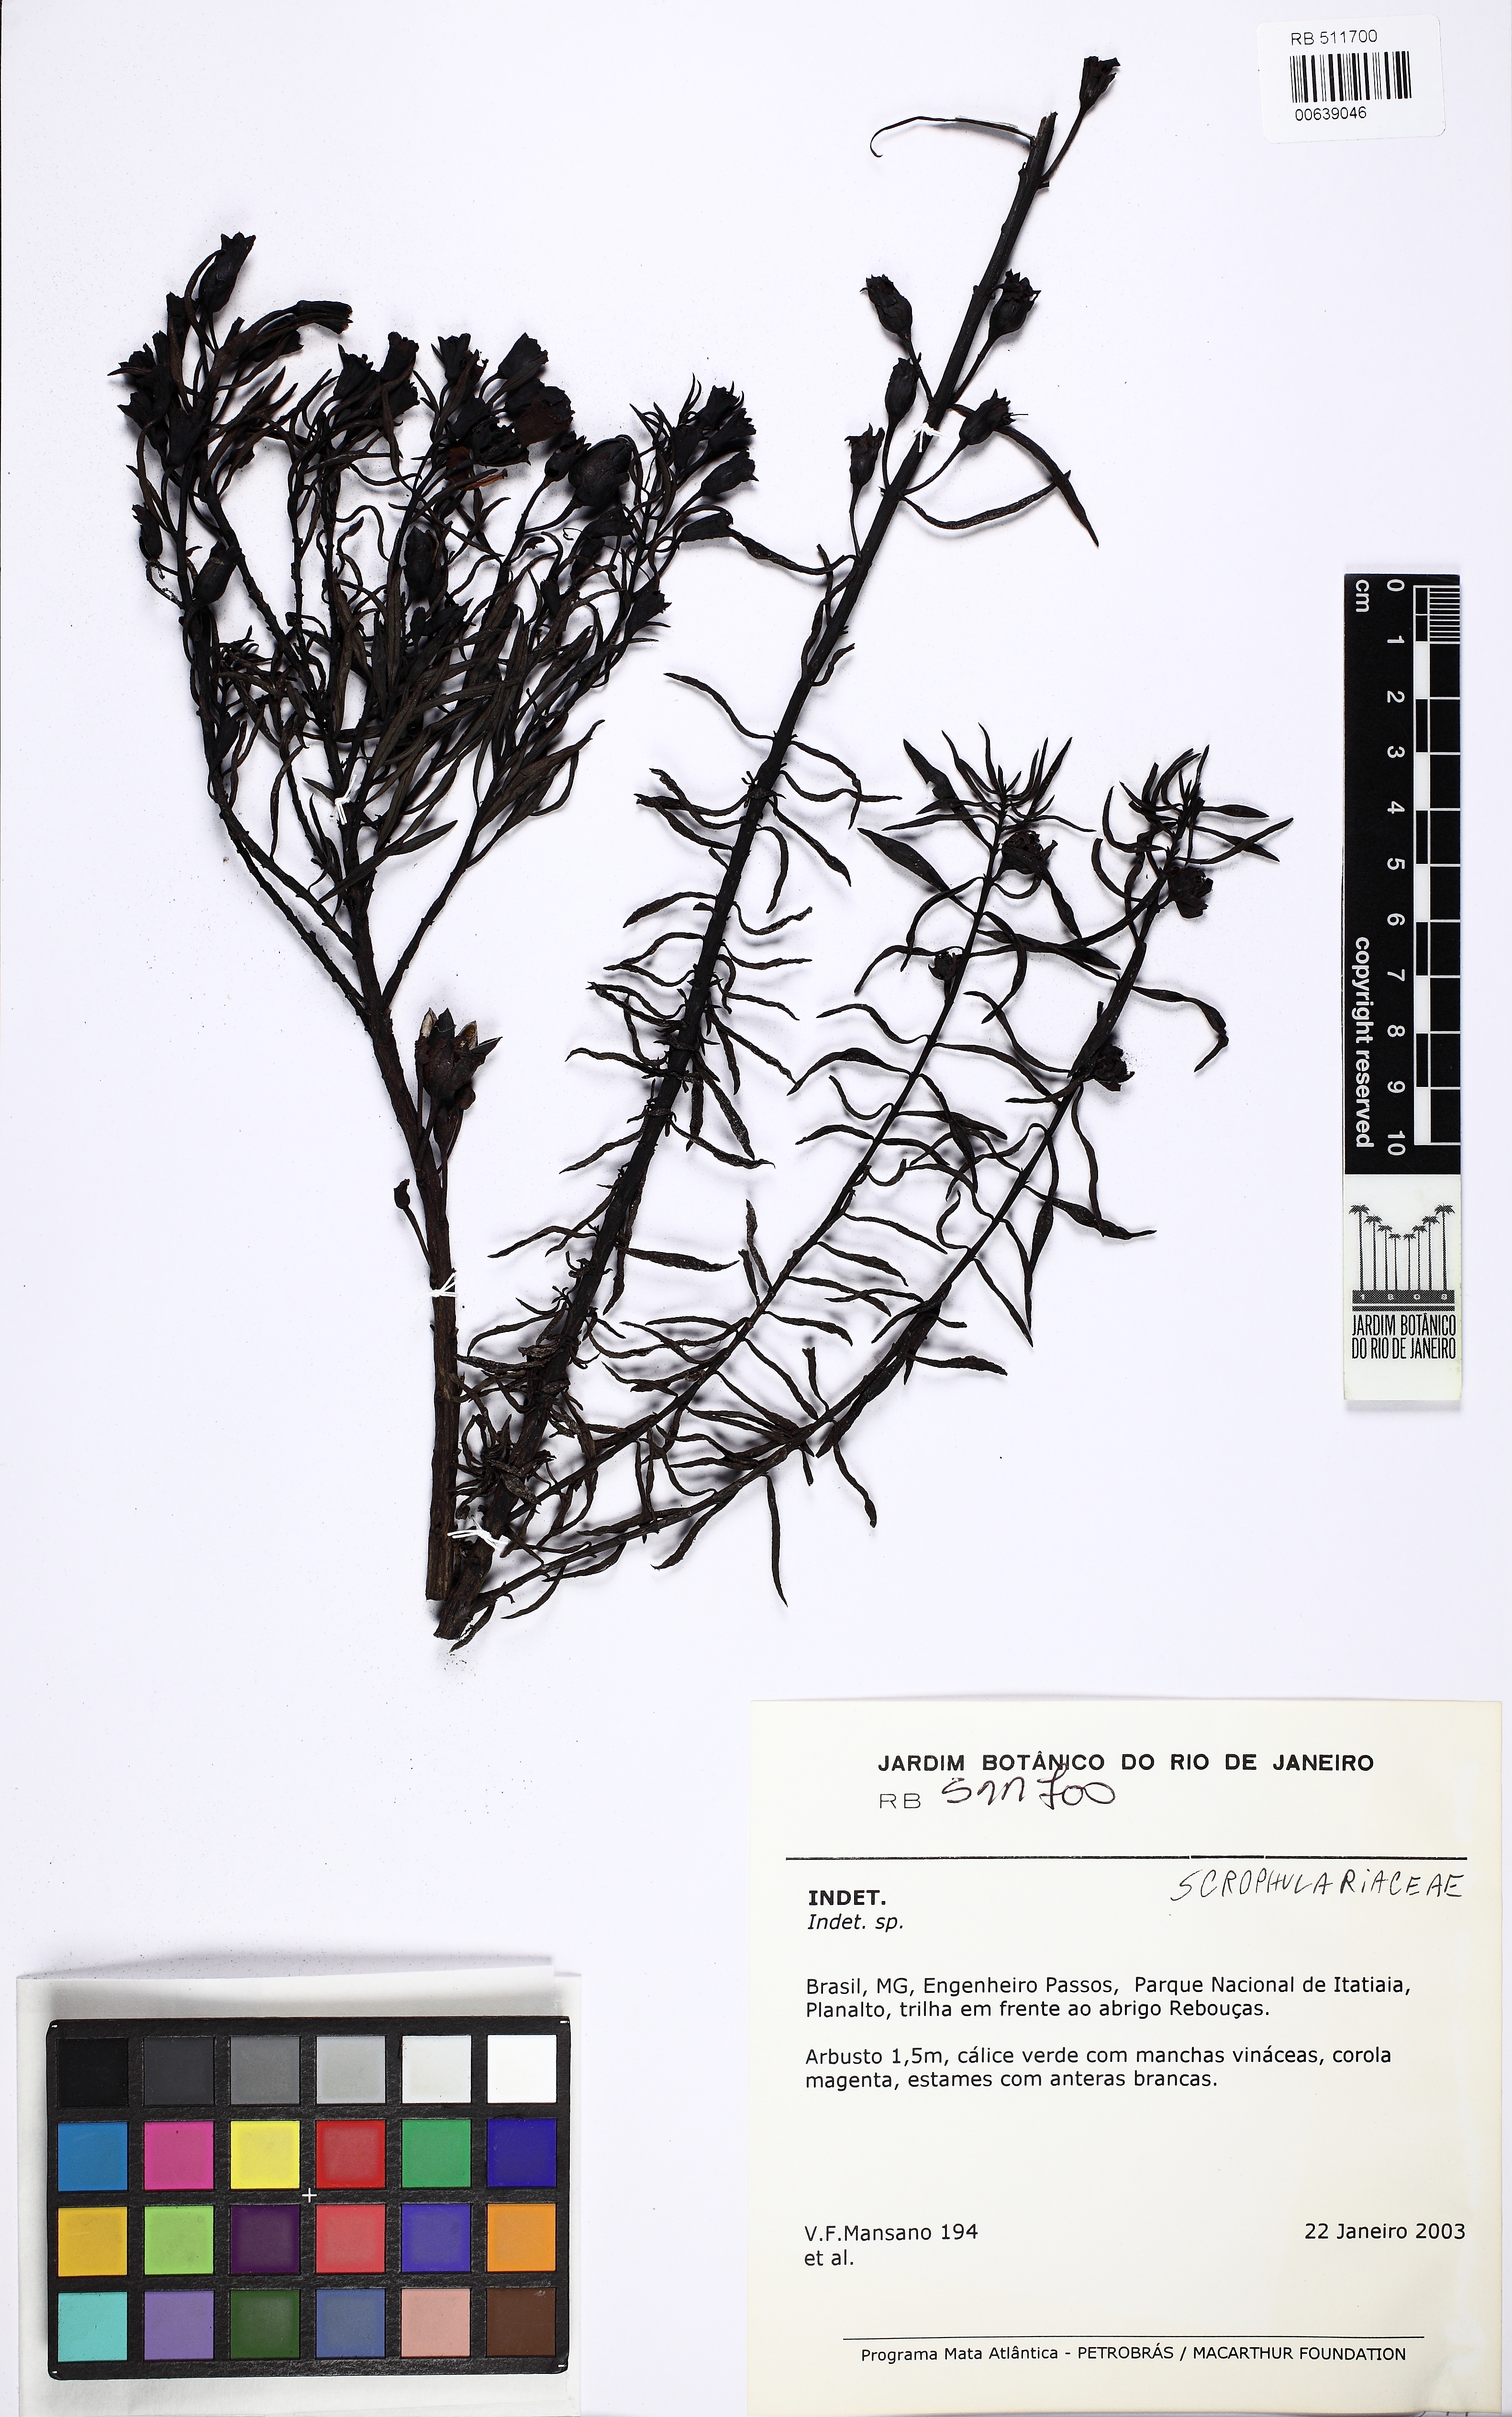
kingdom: Plantae
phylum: Tracheophyta
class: Magnoliopsida
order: Lamiales
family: Orobanchaceae
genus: Esterhazya
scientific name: Esterhazya eitenorum
